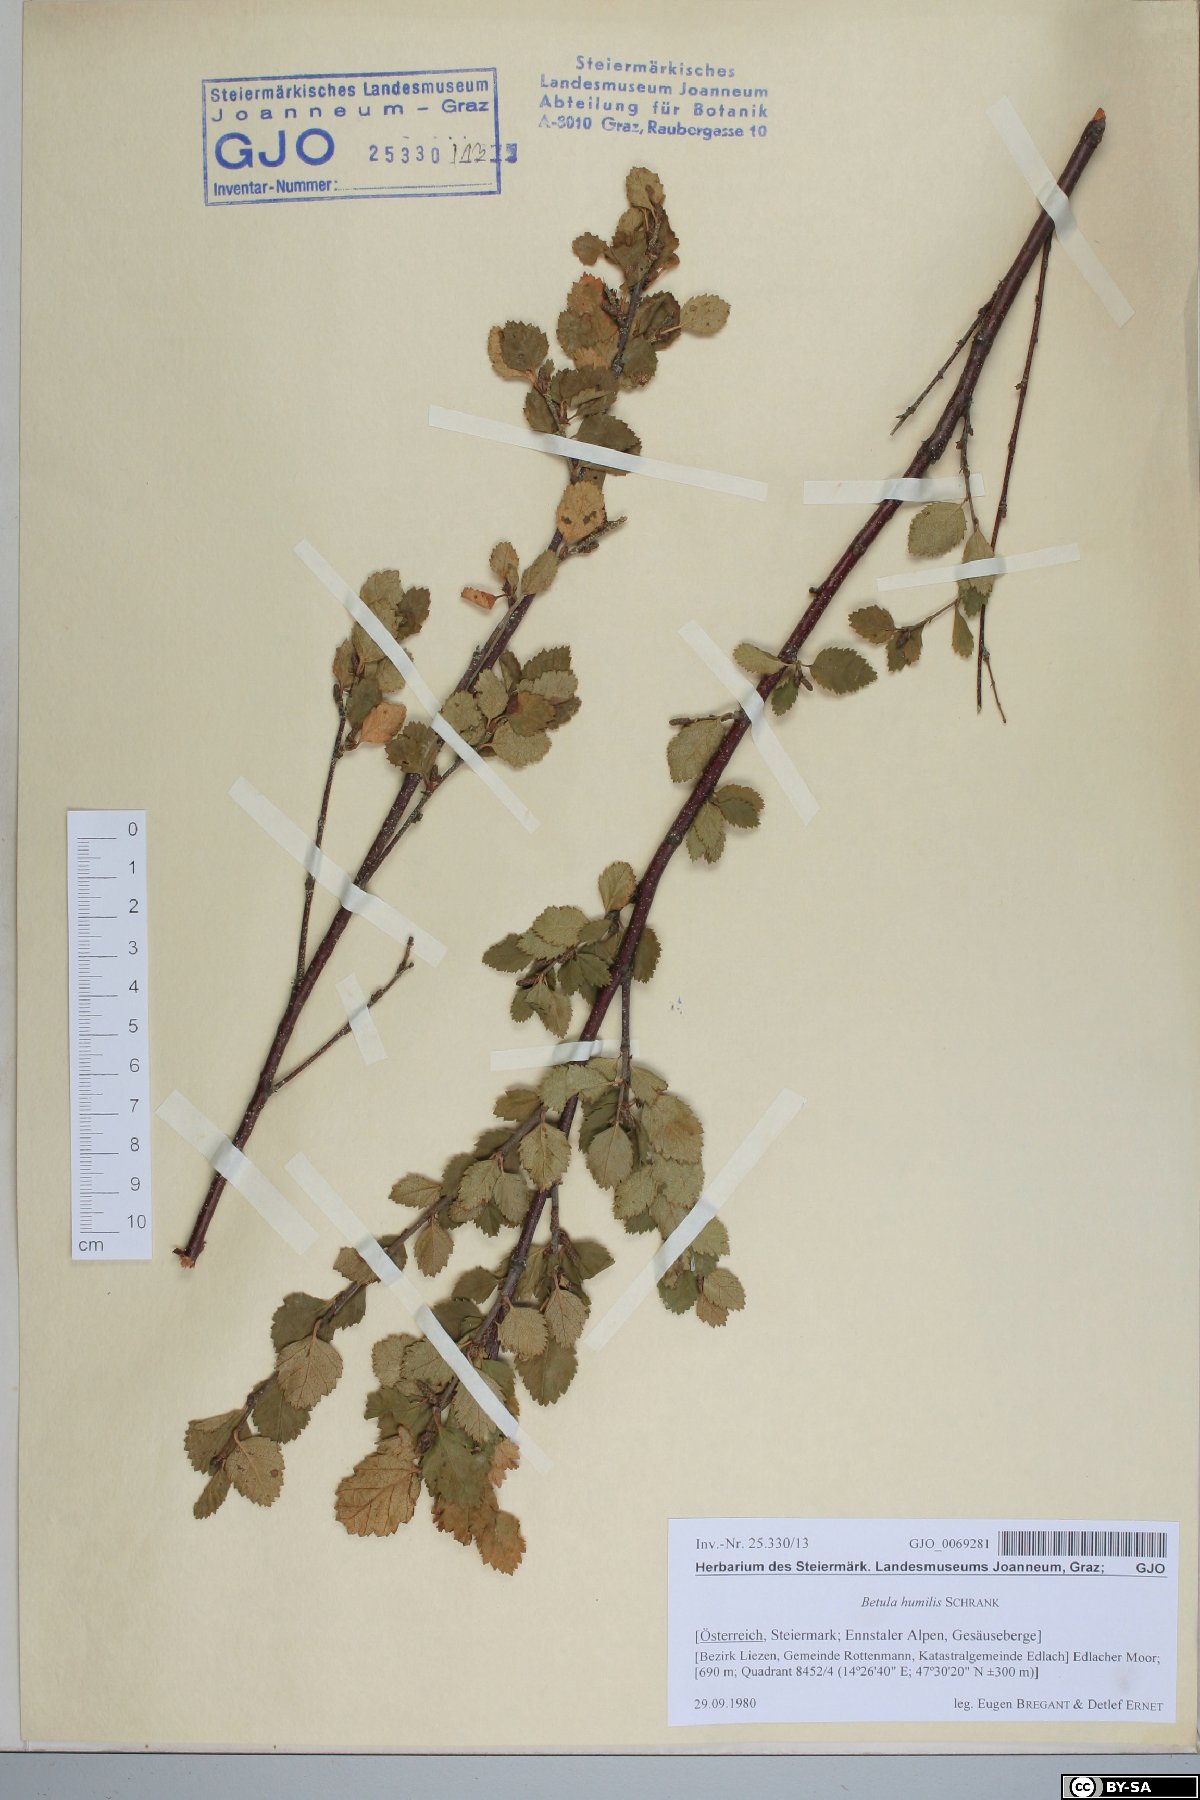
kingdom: Plantae
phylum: Tracheophyta
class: Magnoliopsida
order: Fagales
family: Betulaceae
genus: Betula
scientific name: Betula humilis
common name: Shrubby birch
